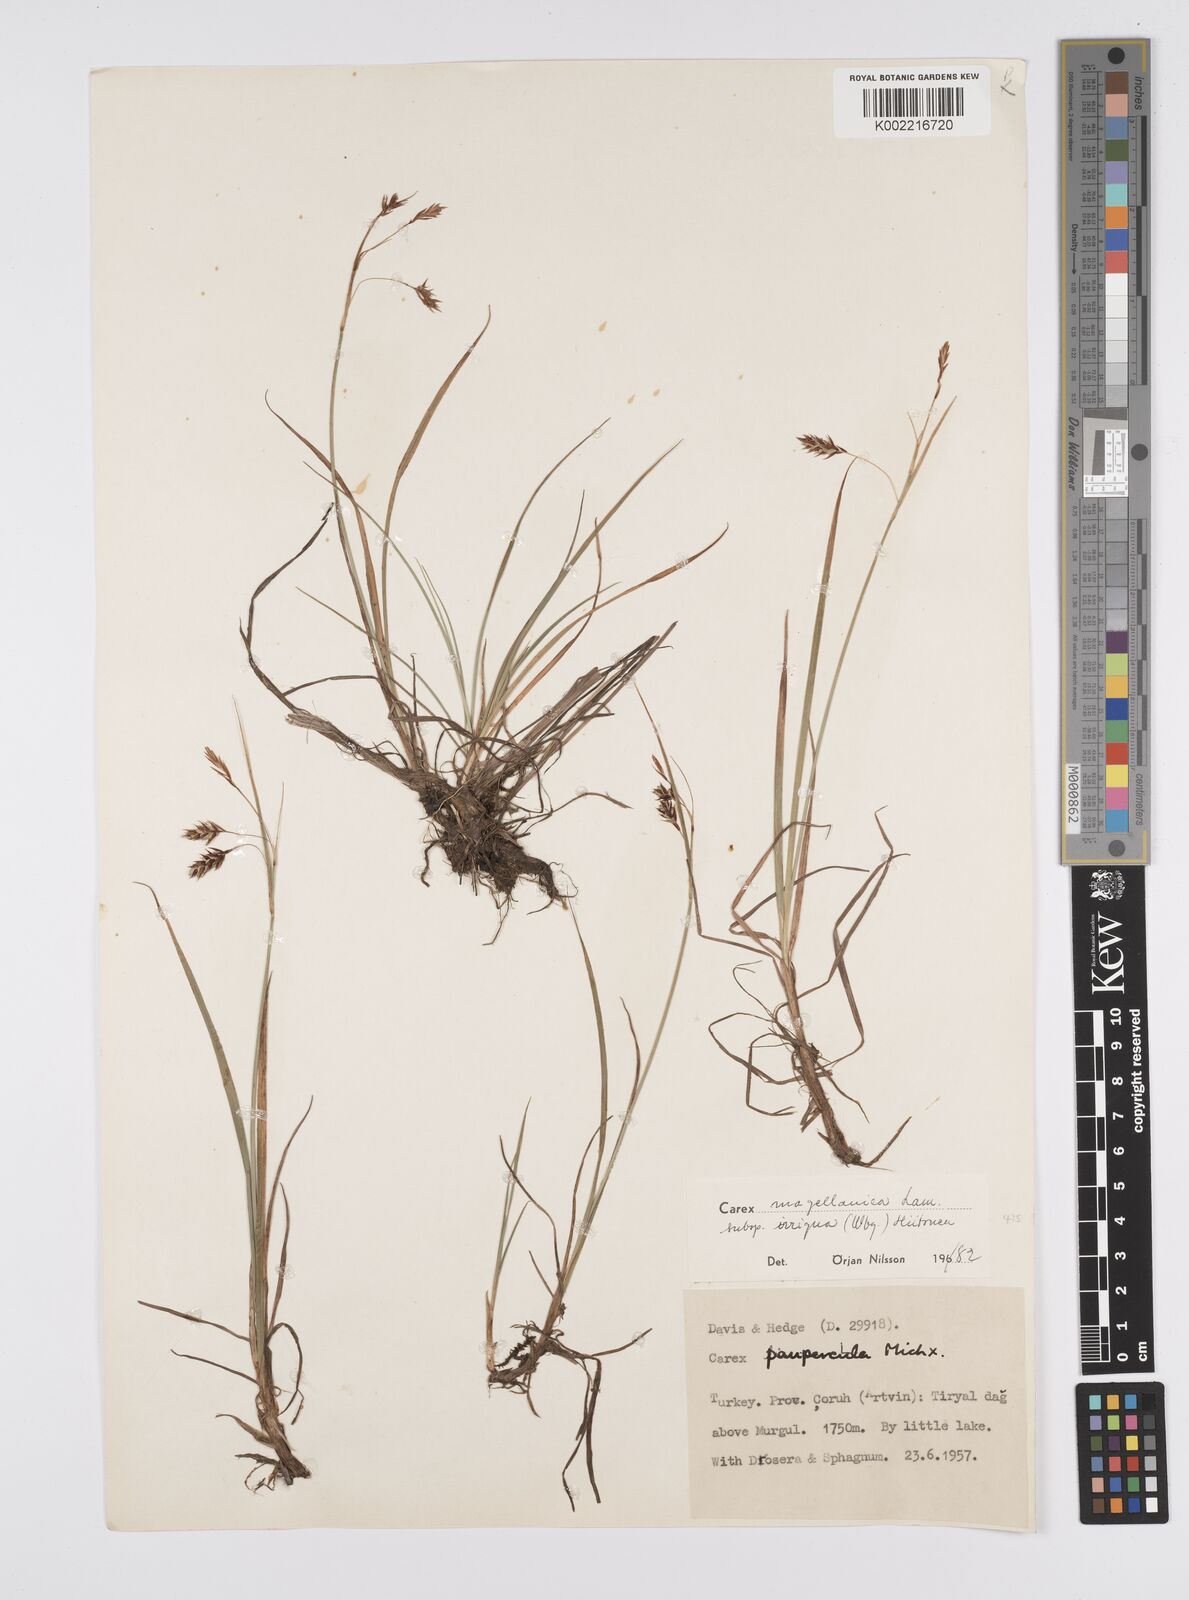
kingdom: Plantae
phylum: Tracheophyta
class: Liliopsida
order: Poales
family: Cyperaceae
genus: Carex
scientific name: Carex kelloggii
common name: Kellogg's sedge
